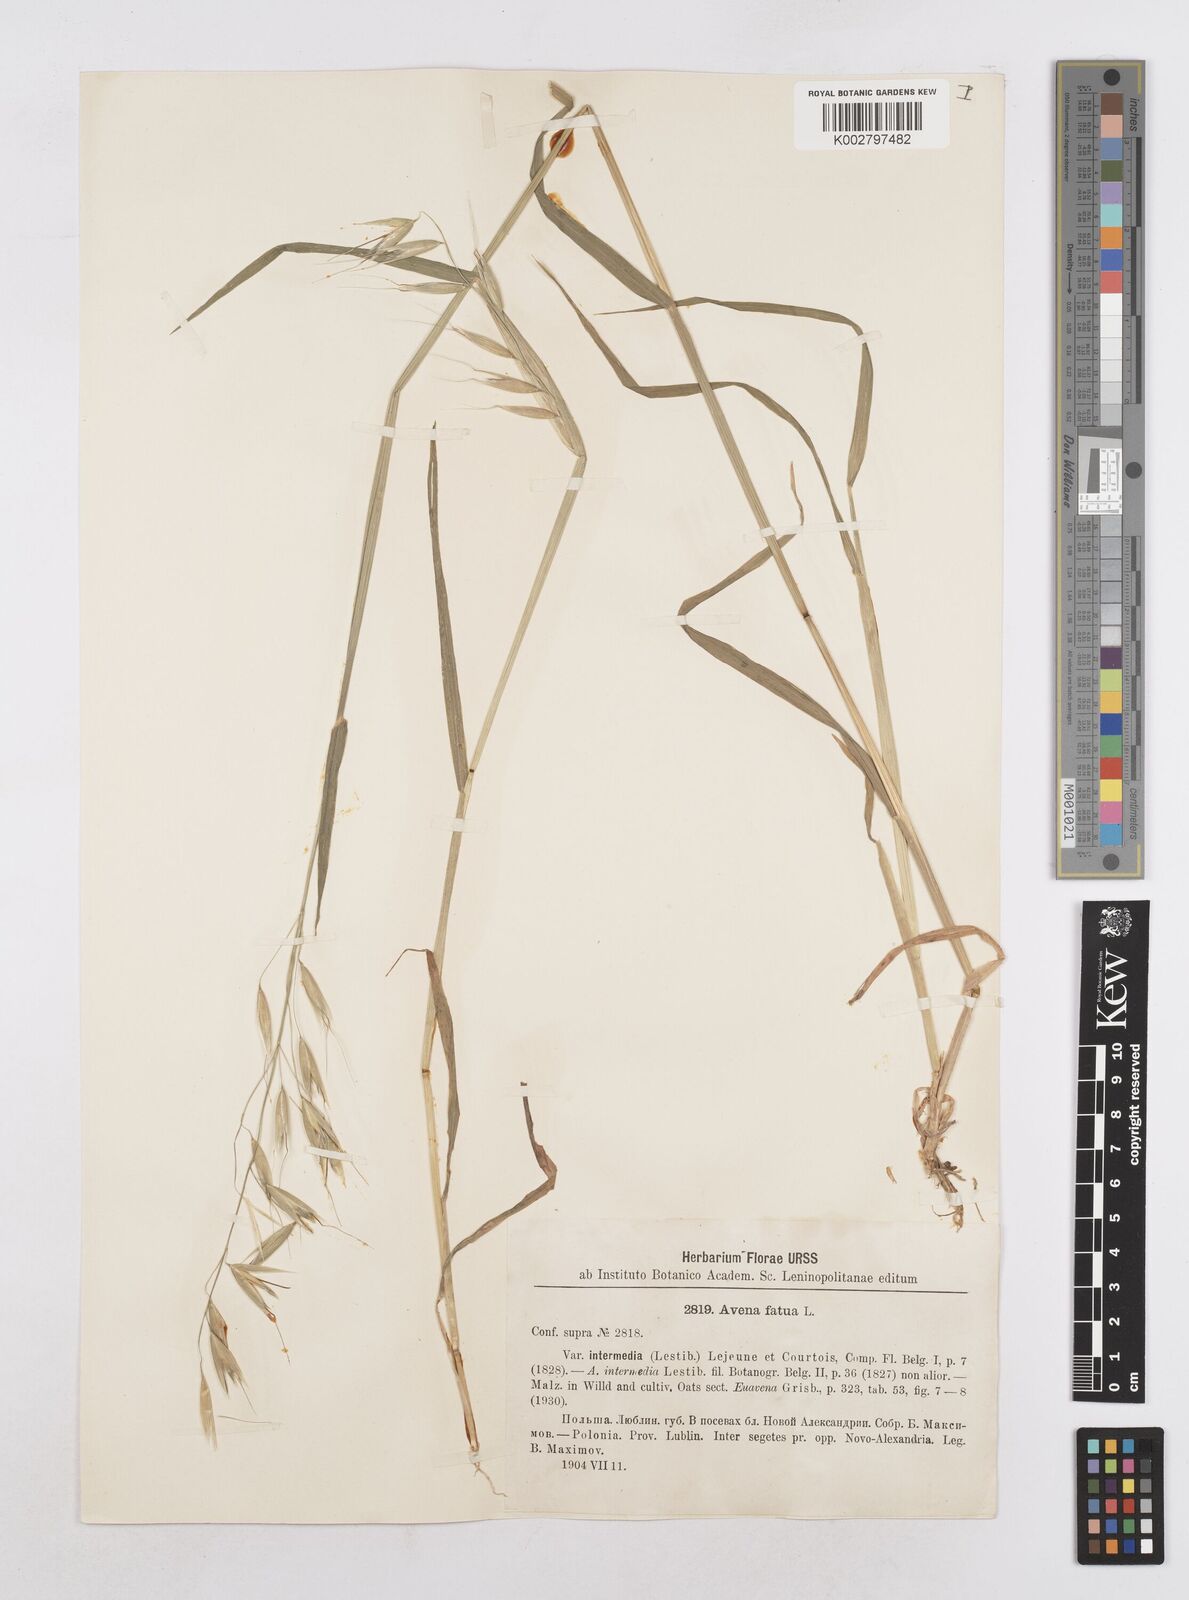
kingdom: Plantae
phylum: Tracheophyta
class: Liliopsida
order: Poales
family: Poaceae
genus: Avena
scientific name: Avena fatua
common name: Wild oat
